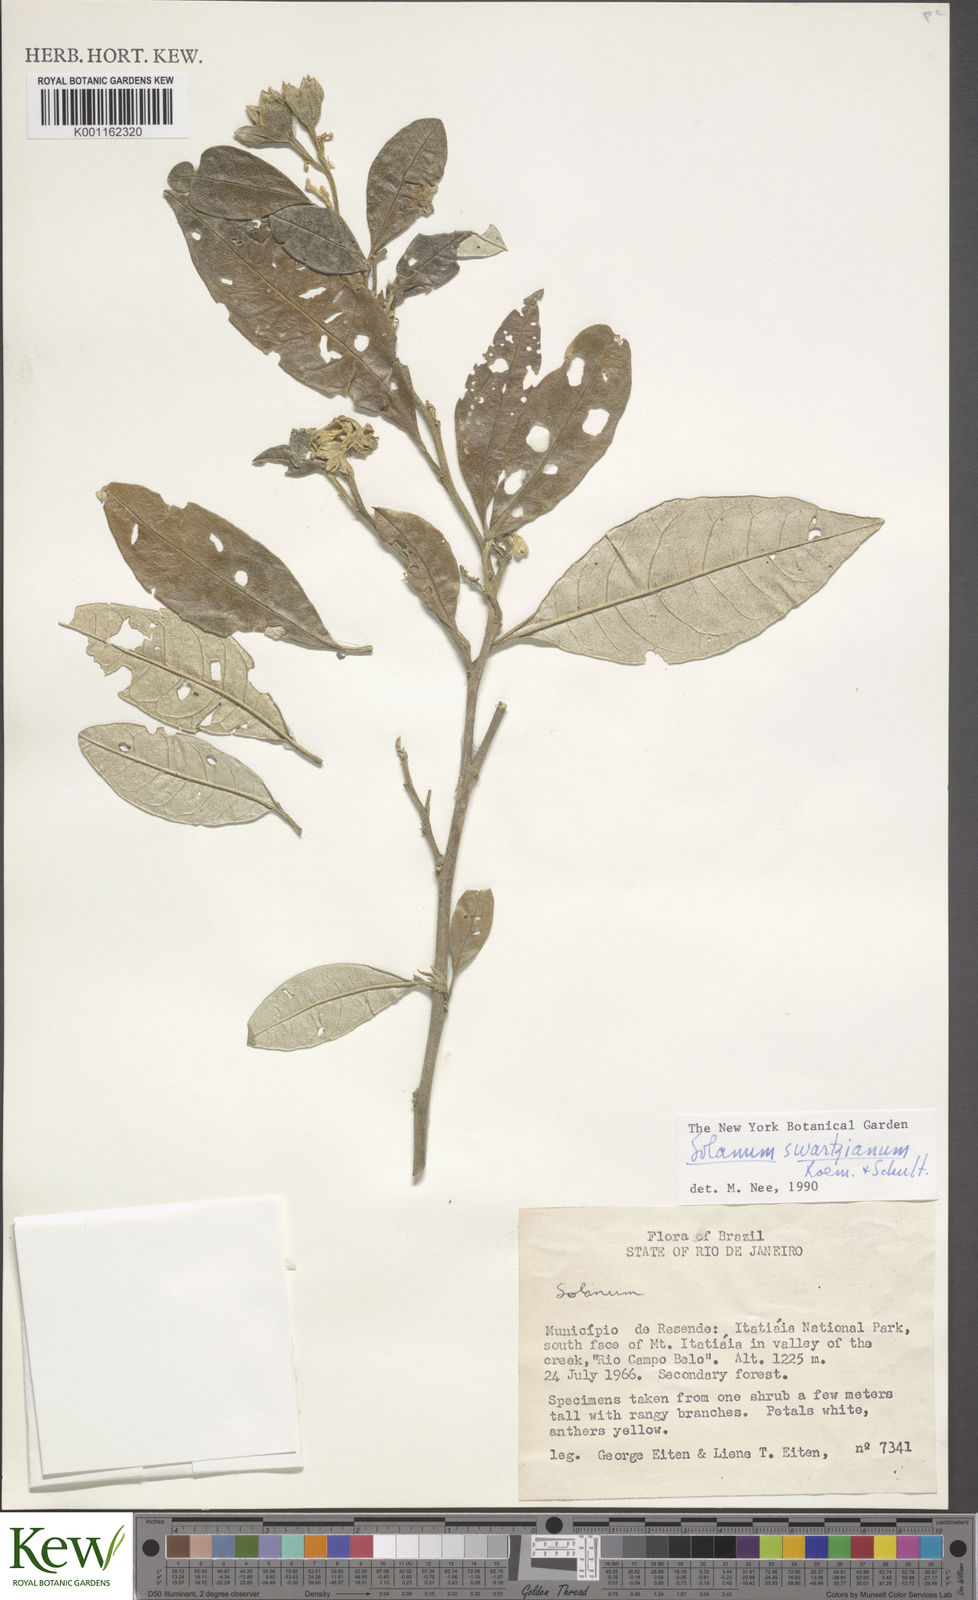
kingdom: Plantae
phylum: Tracheophyta
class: Magnoliopsida
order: Solanales
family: Solanaceae
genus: Solanum
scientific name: Solanum swartzianum
